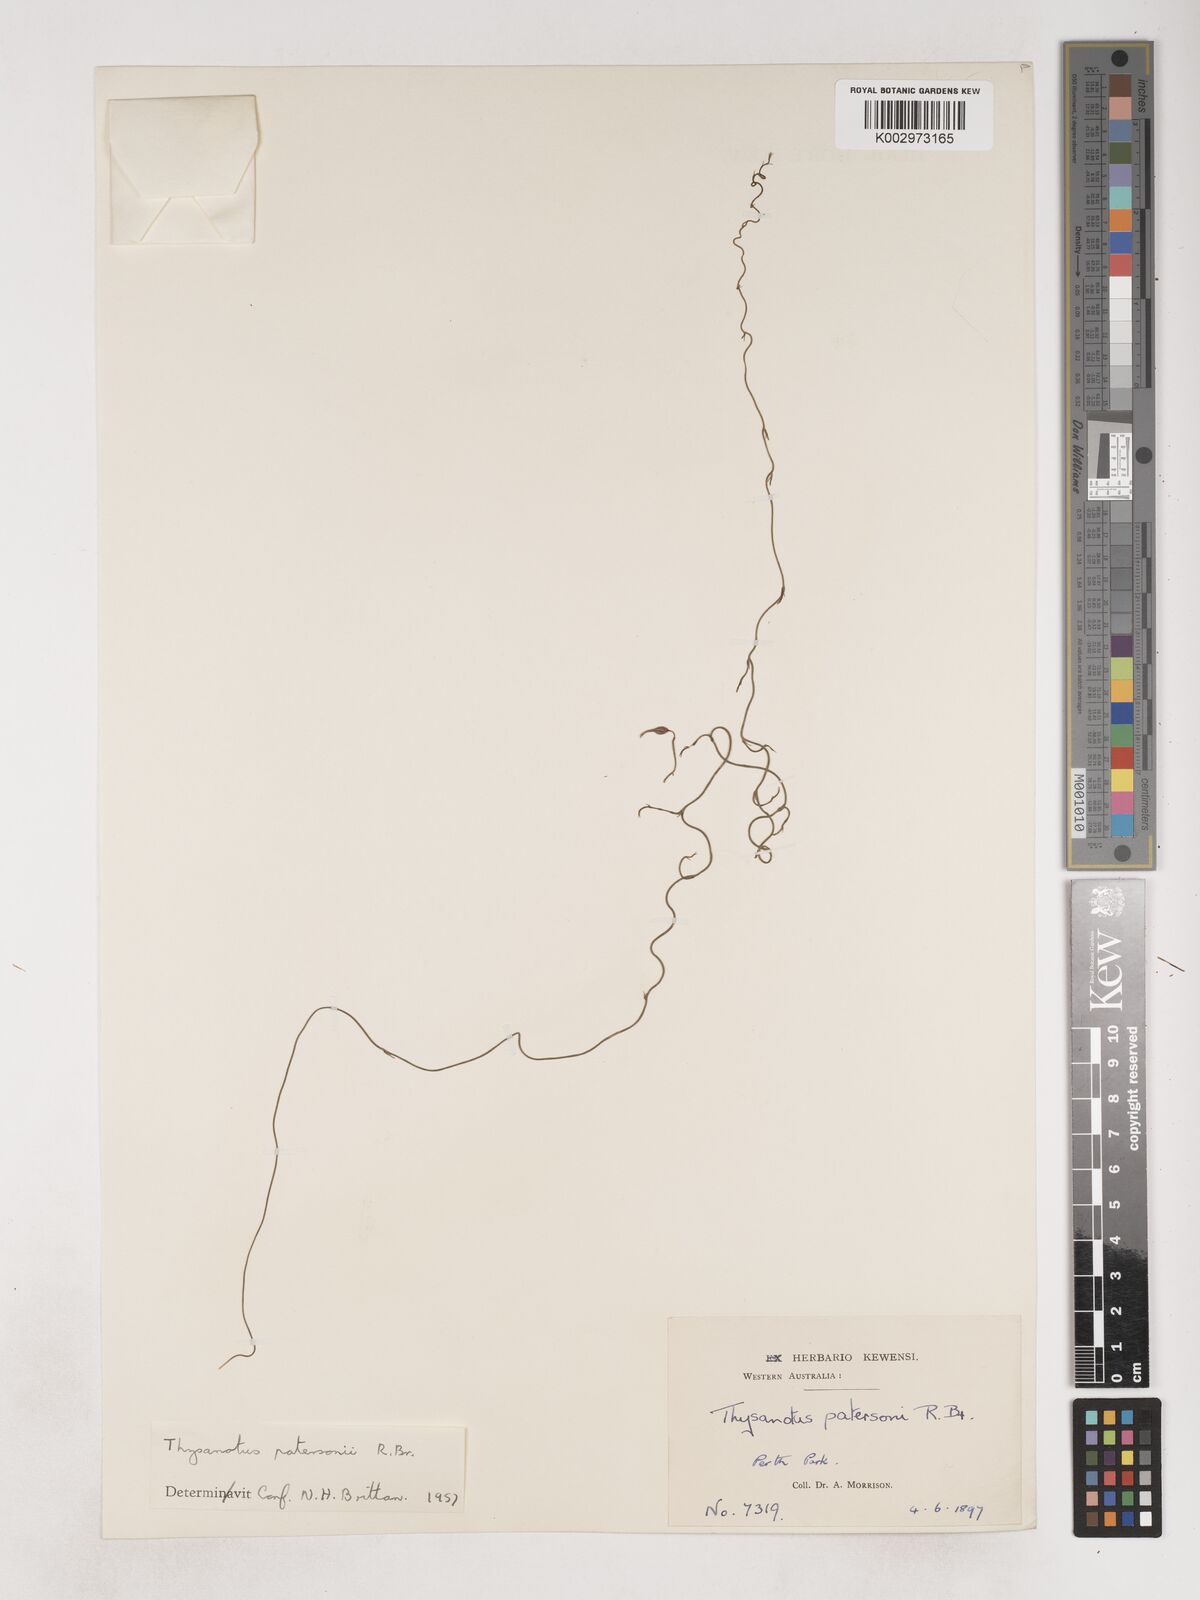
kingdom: Plantae
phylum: Tracheophyta
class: Liliopsida
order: Asparagales
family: Asparagaceae
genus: Thysanotus
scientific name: Thysanotus patersonii
